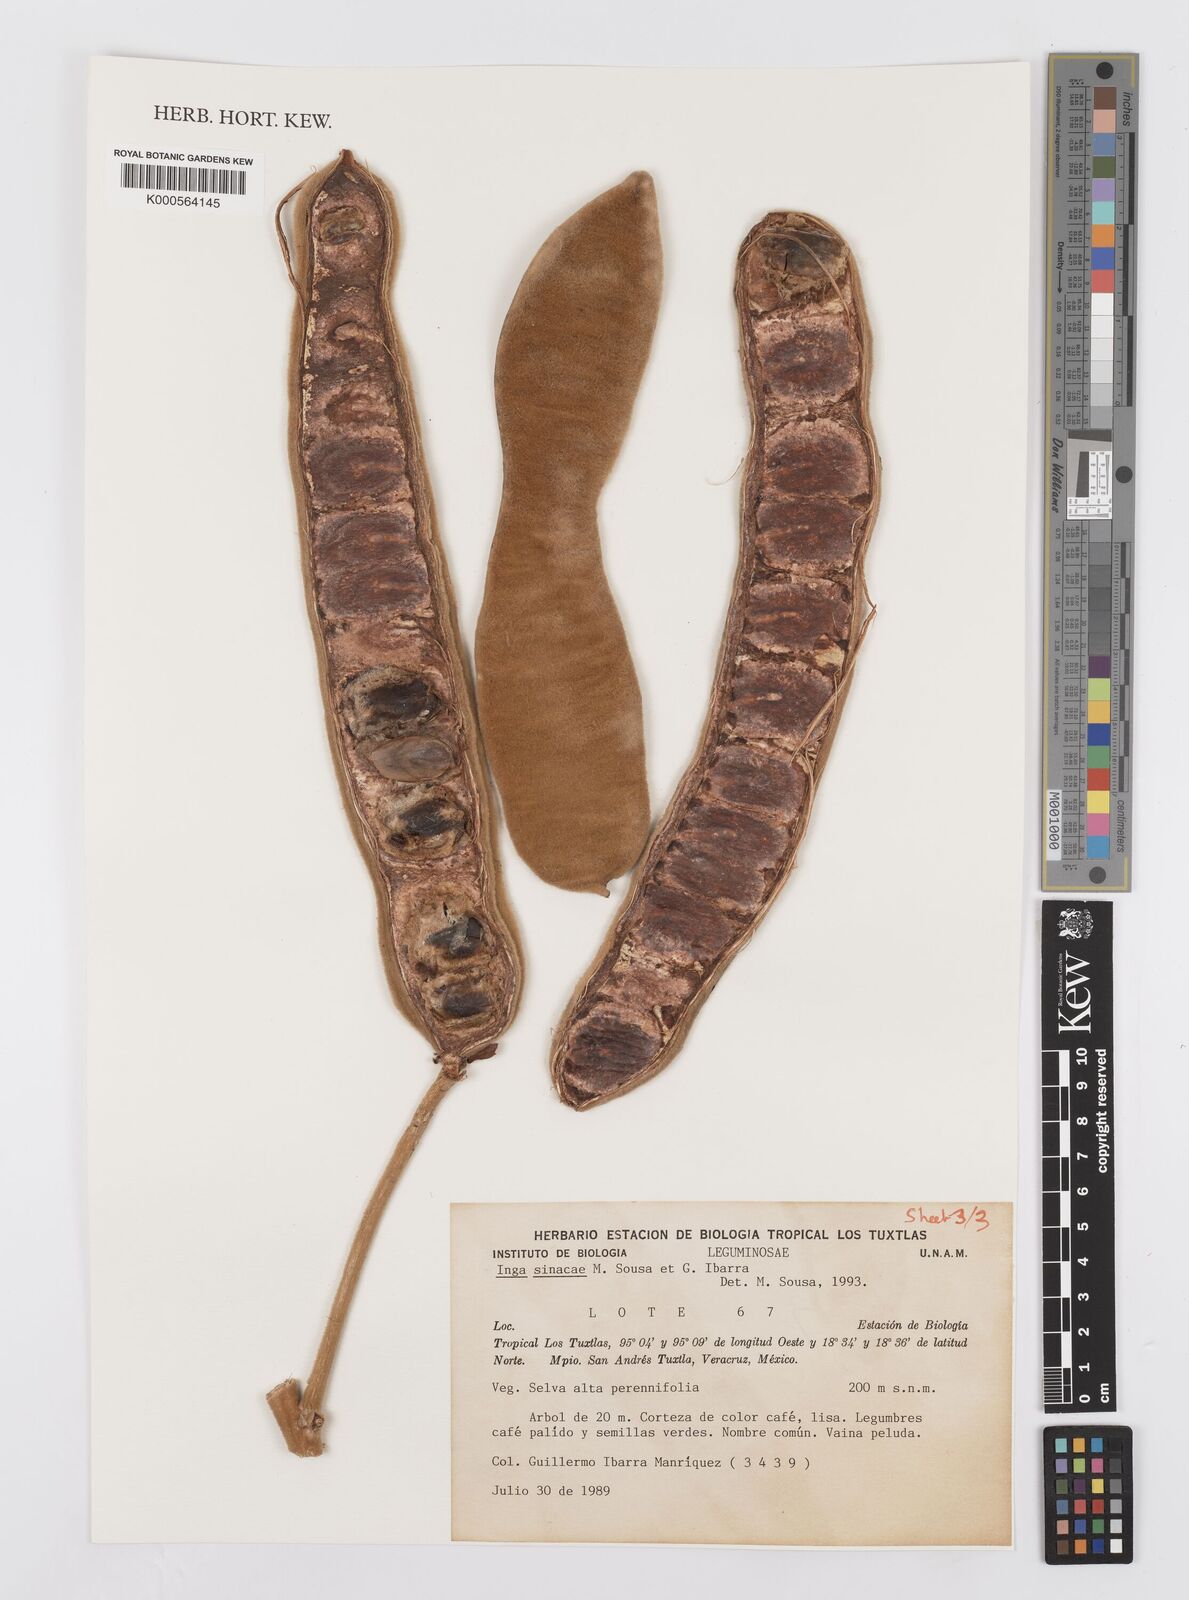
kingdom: Plantae
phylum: Tracheophyta
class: Magnoliopsida
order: Fabales
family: Fabaceae
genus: Inga
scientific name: Inga sinacae
